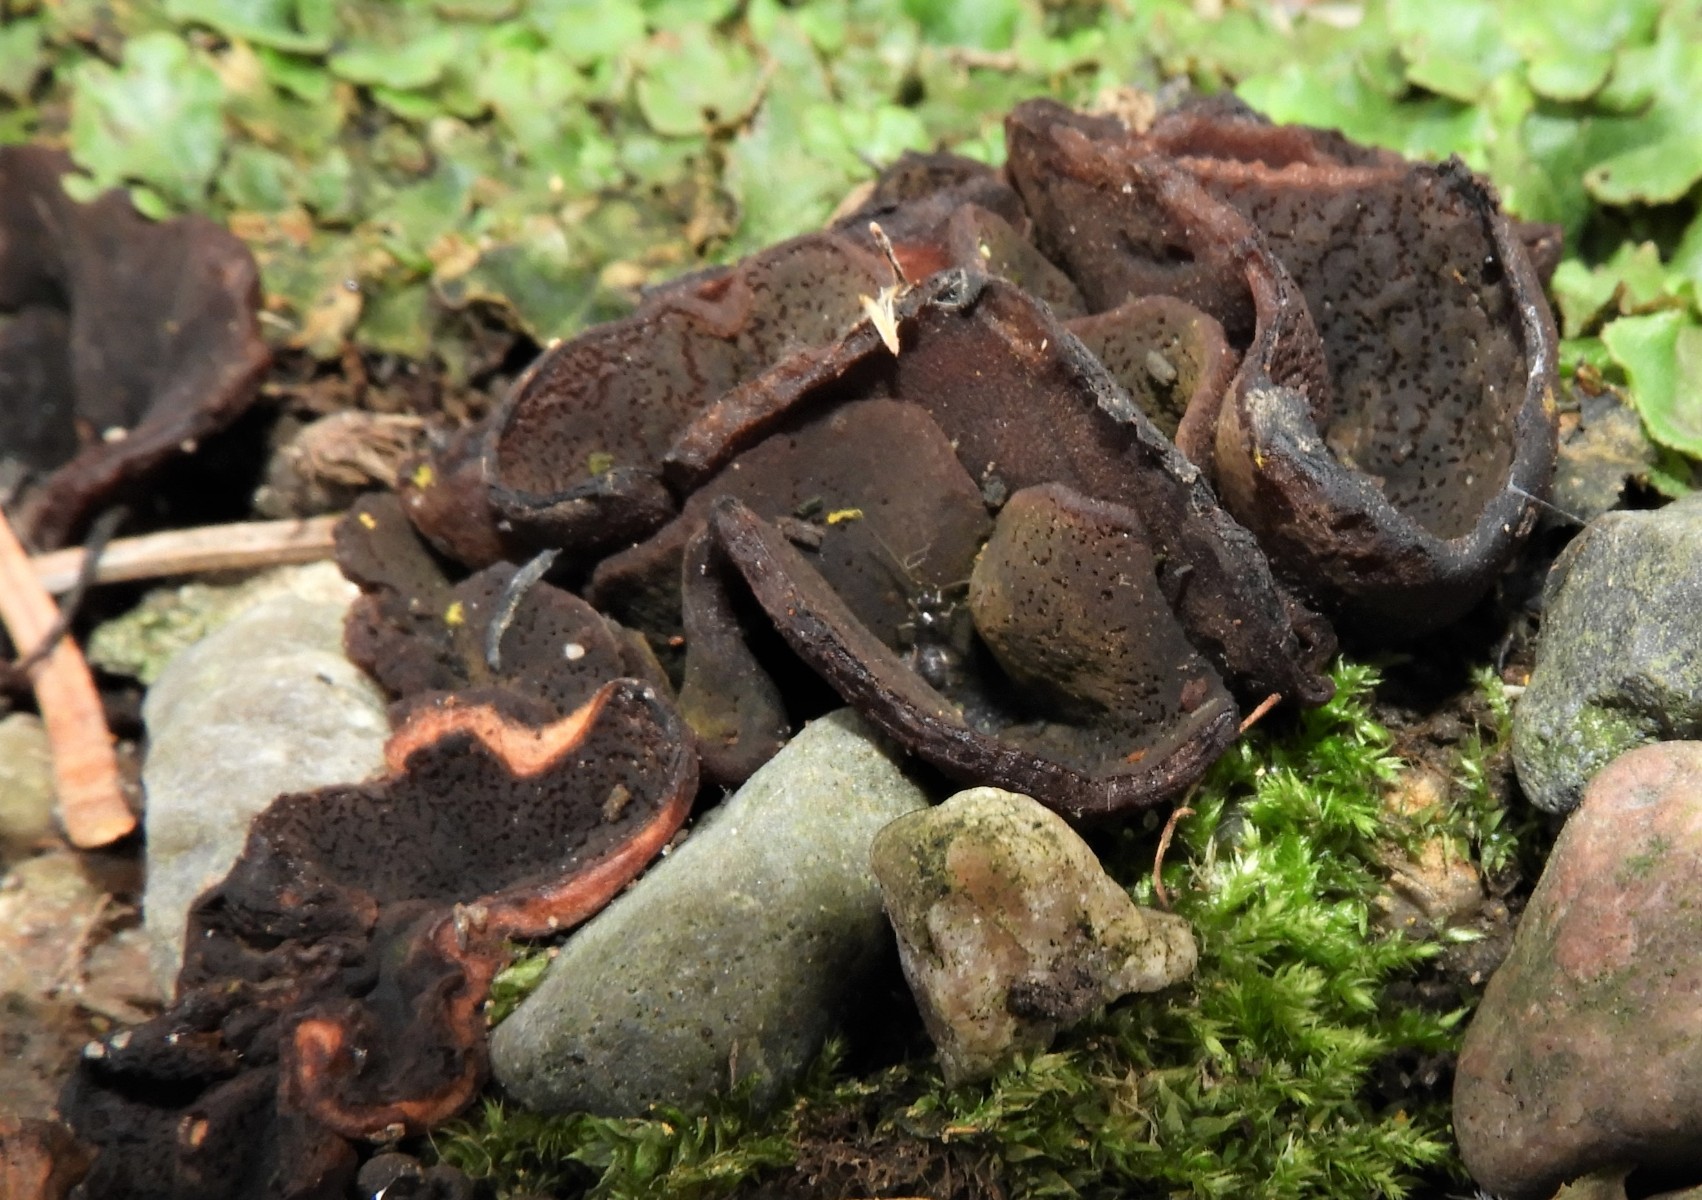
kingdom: Fungi
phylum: Ascomycota
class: Pezizomycetes
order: Pezizales
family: Pezizaceae
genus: Peziza
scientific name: Peziza
